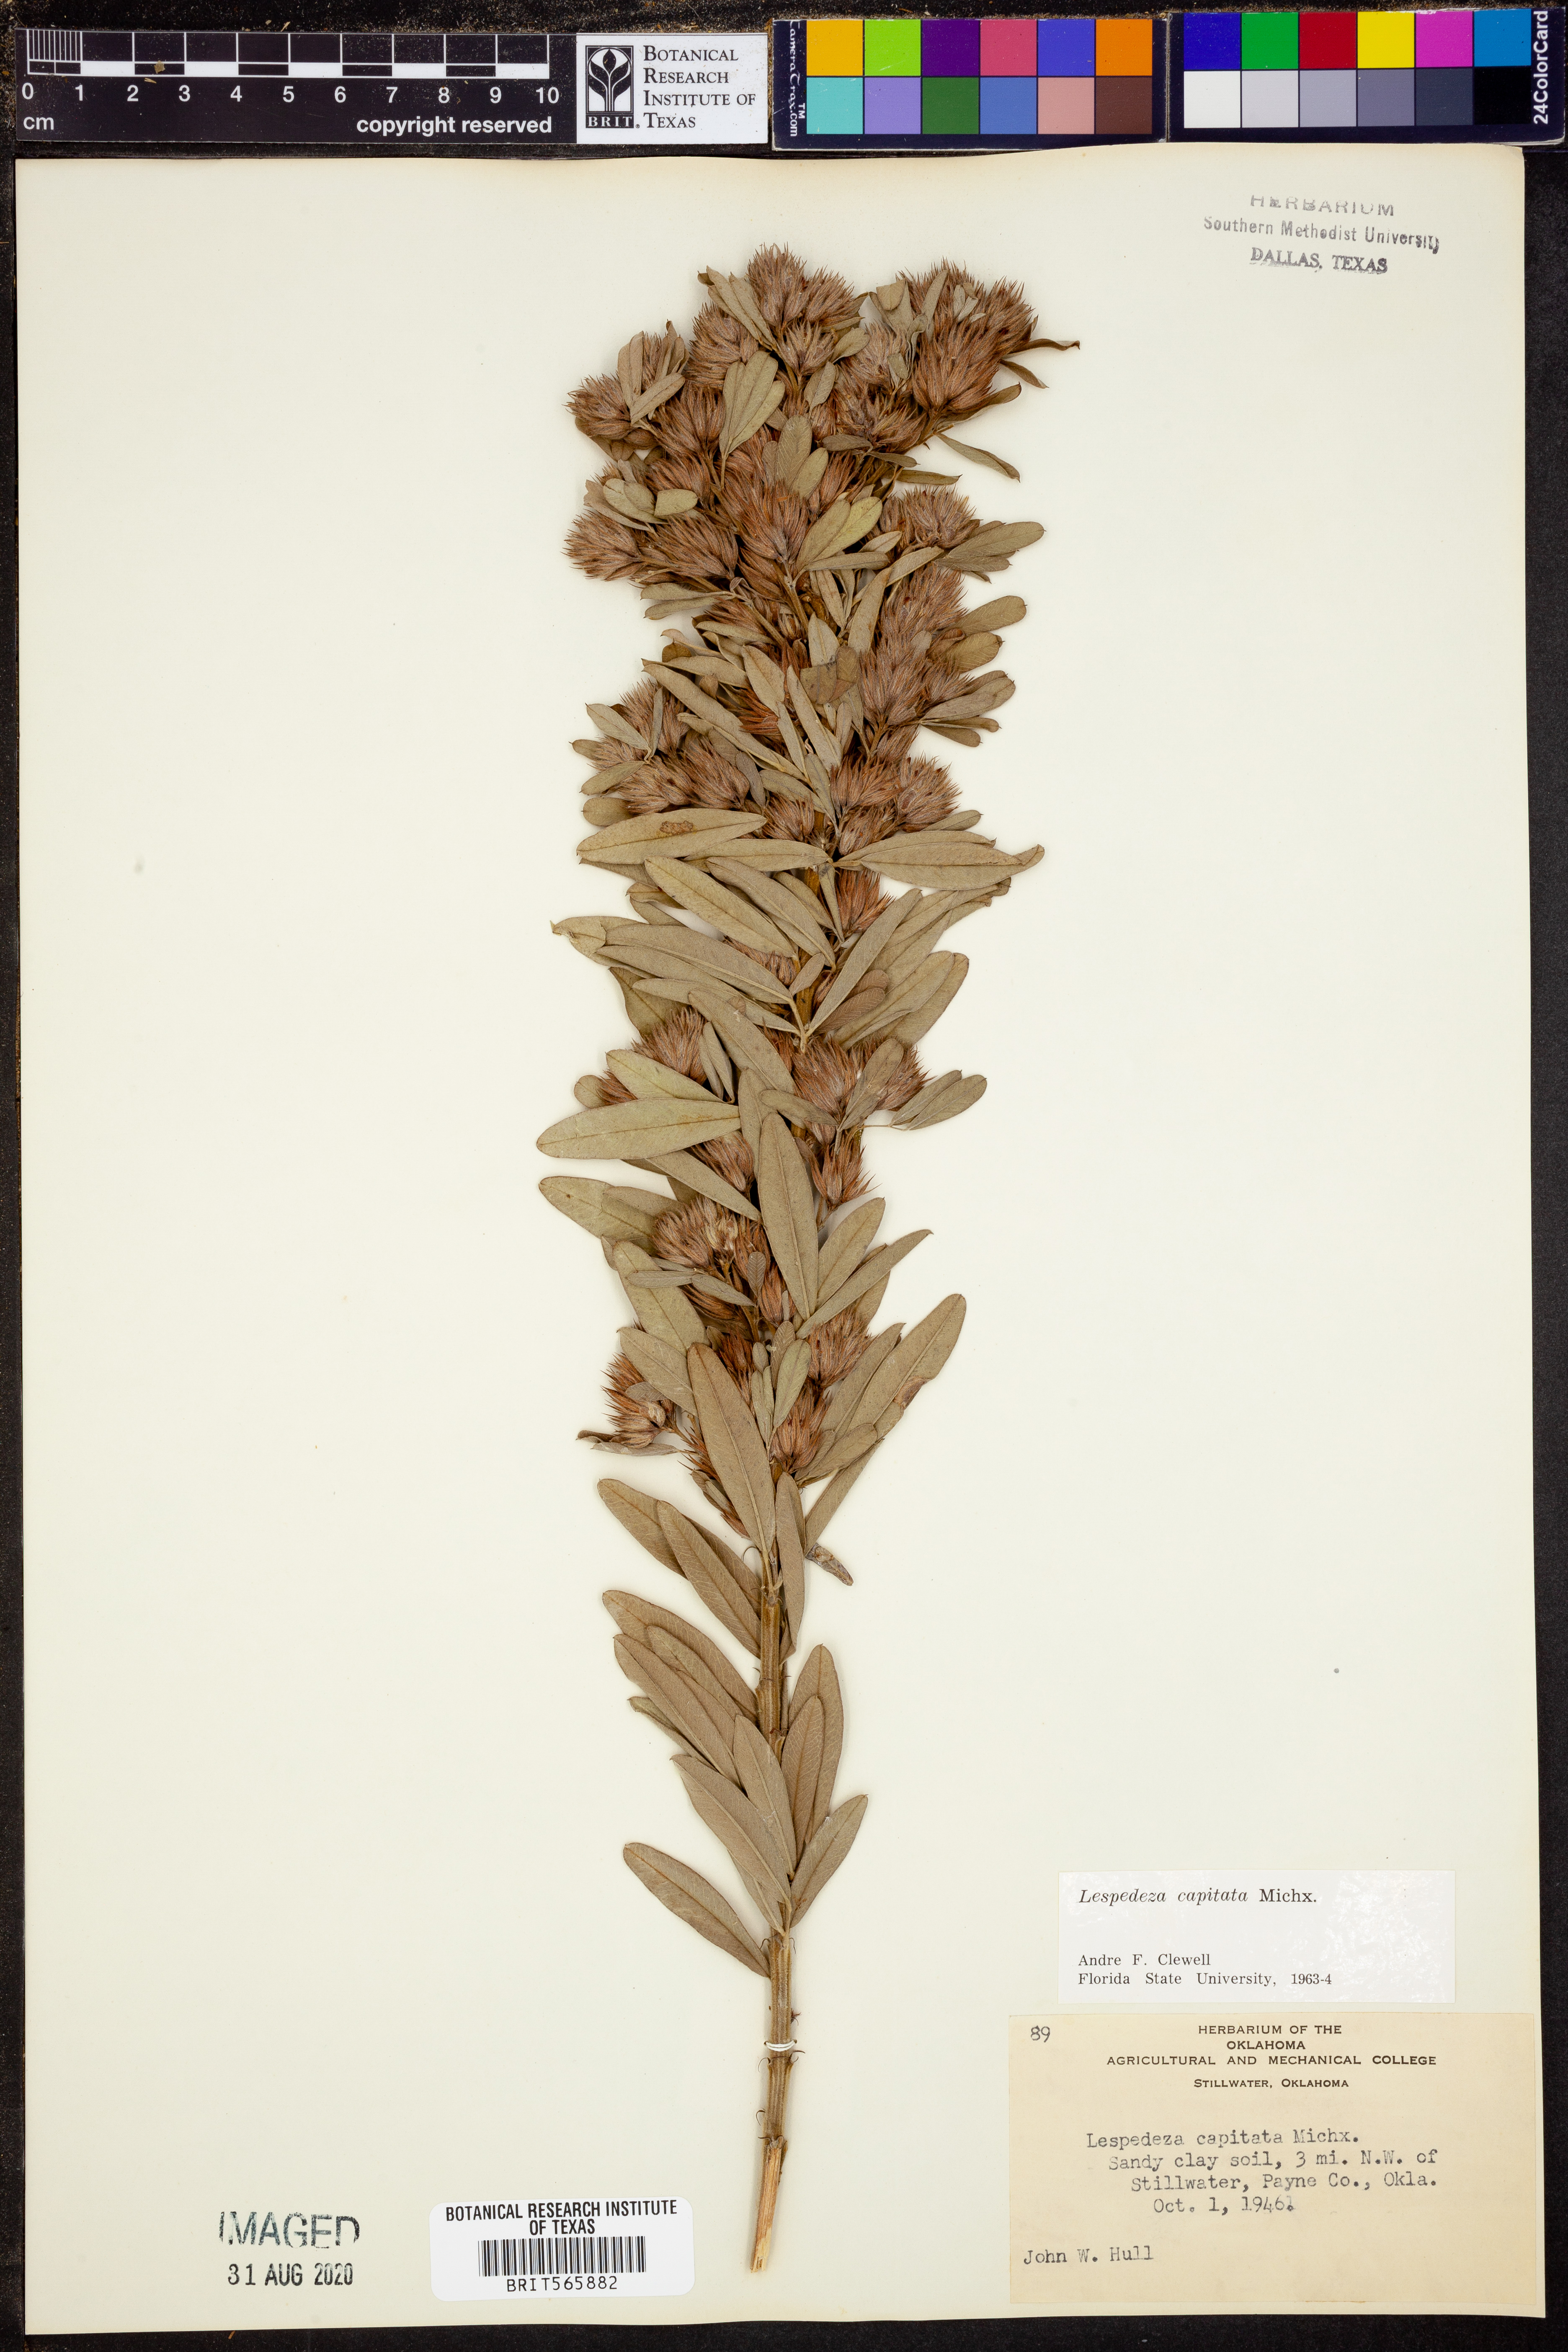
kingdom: Plantae
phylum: Tracheophyta
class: Magnoliopsida
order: Fabales
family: Fabaceae
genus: Lespedeza
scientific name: Lespedeza capitata
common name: Dusty clover
